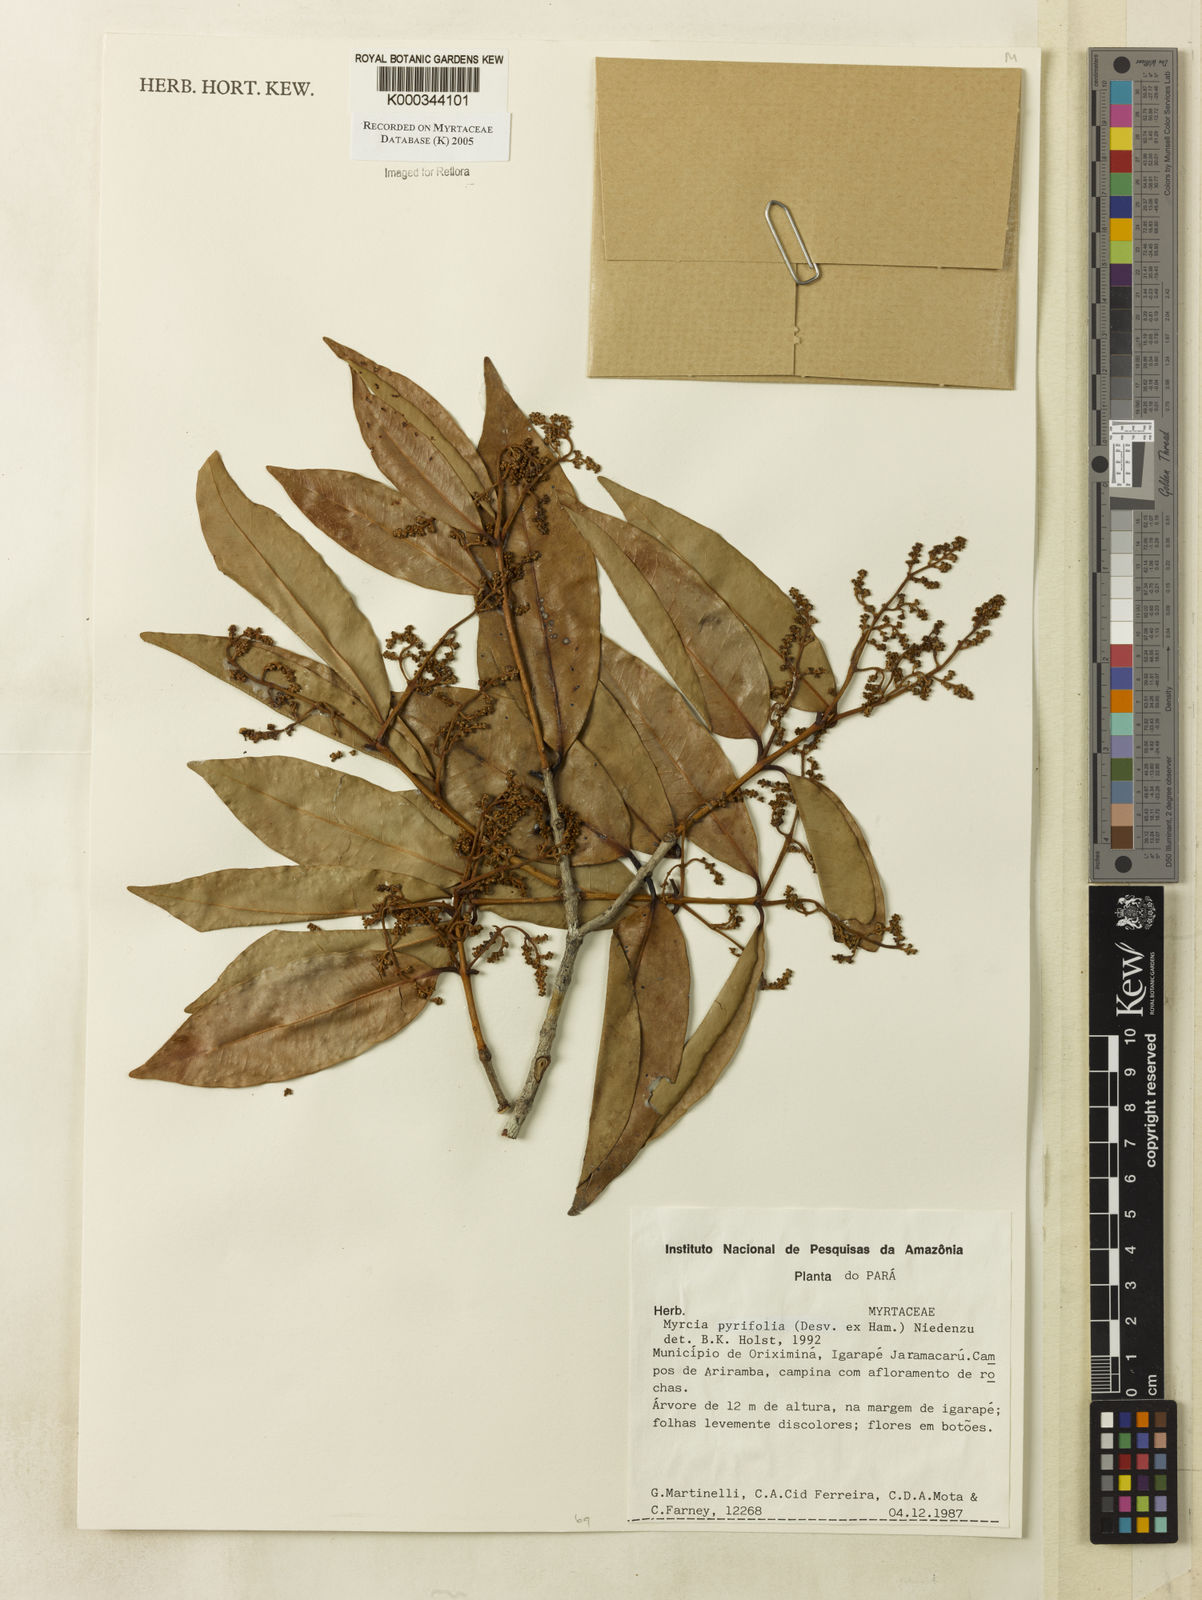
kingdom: Plantae
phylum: Tracheophyta
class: Magnoliopsida
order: Myrtales
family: Myrtaceae
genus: Myrcia
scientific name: Myrcia pyrifolia
